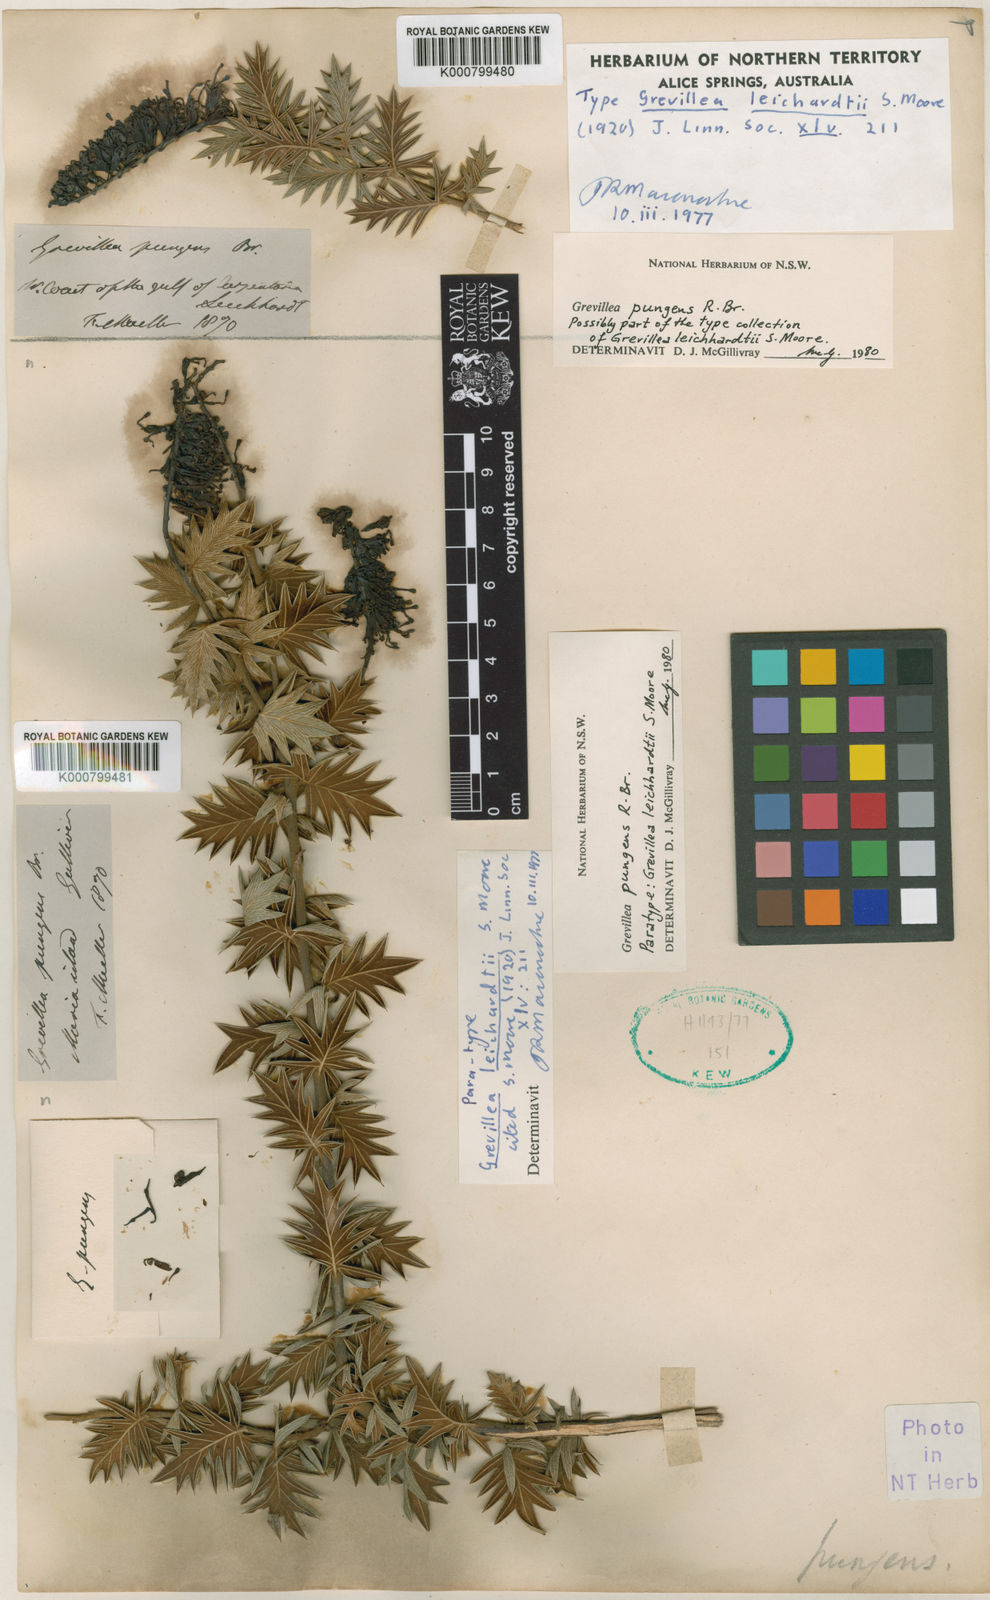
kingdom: Plantae
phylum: Tracheophyta
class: Magnoliopsida
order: Proteales
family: Proteaceae
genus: Grevillea
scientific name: Grevillea pungens
